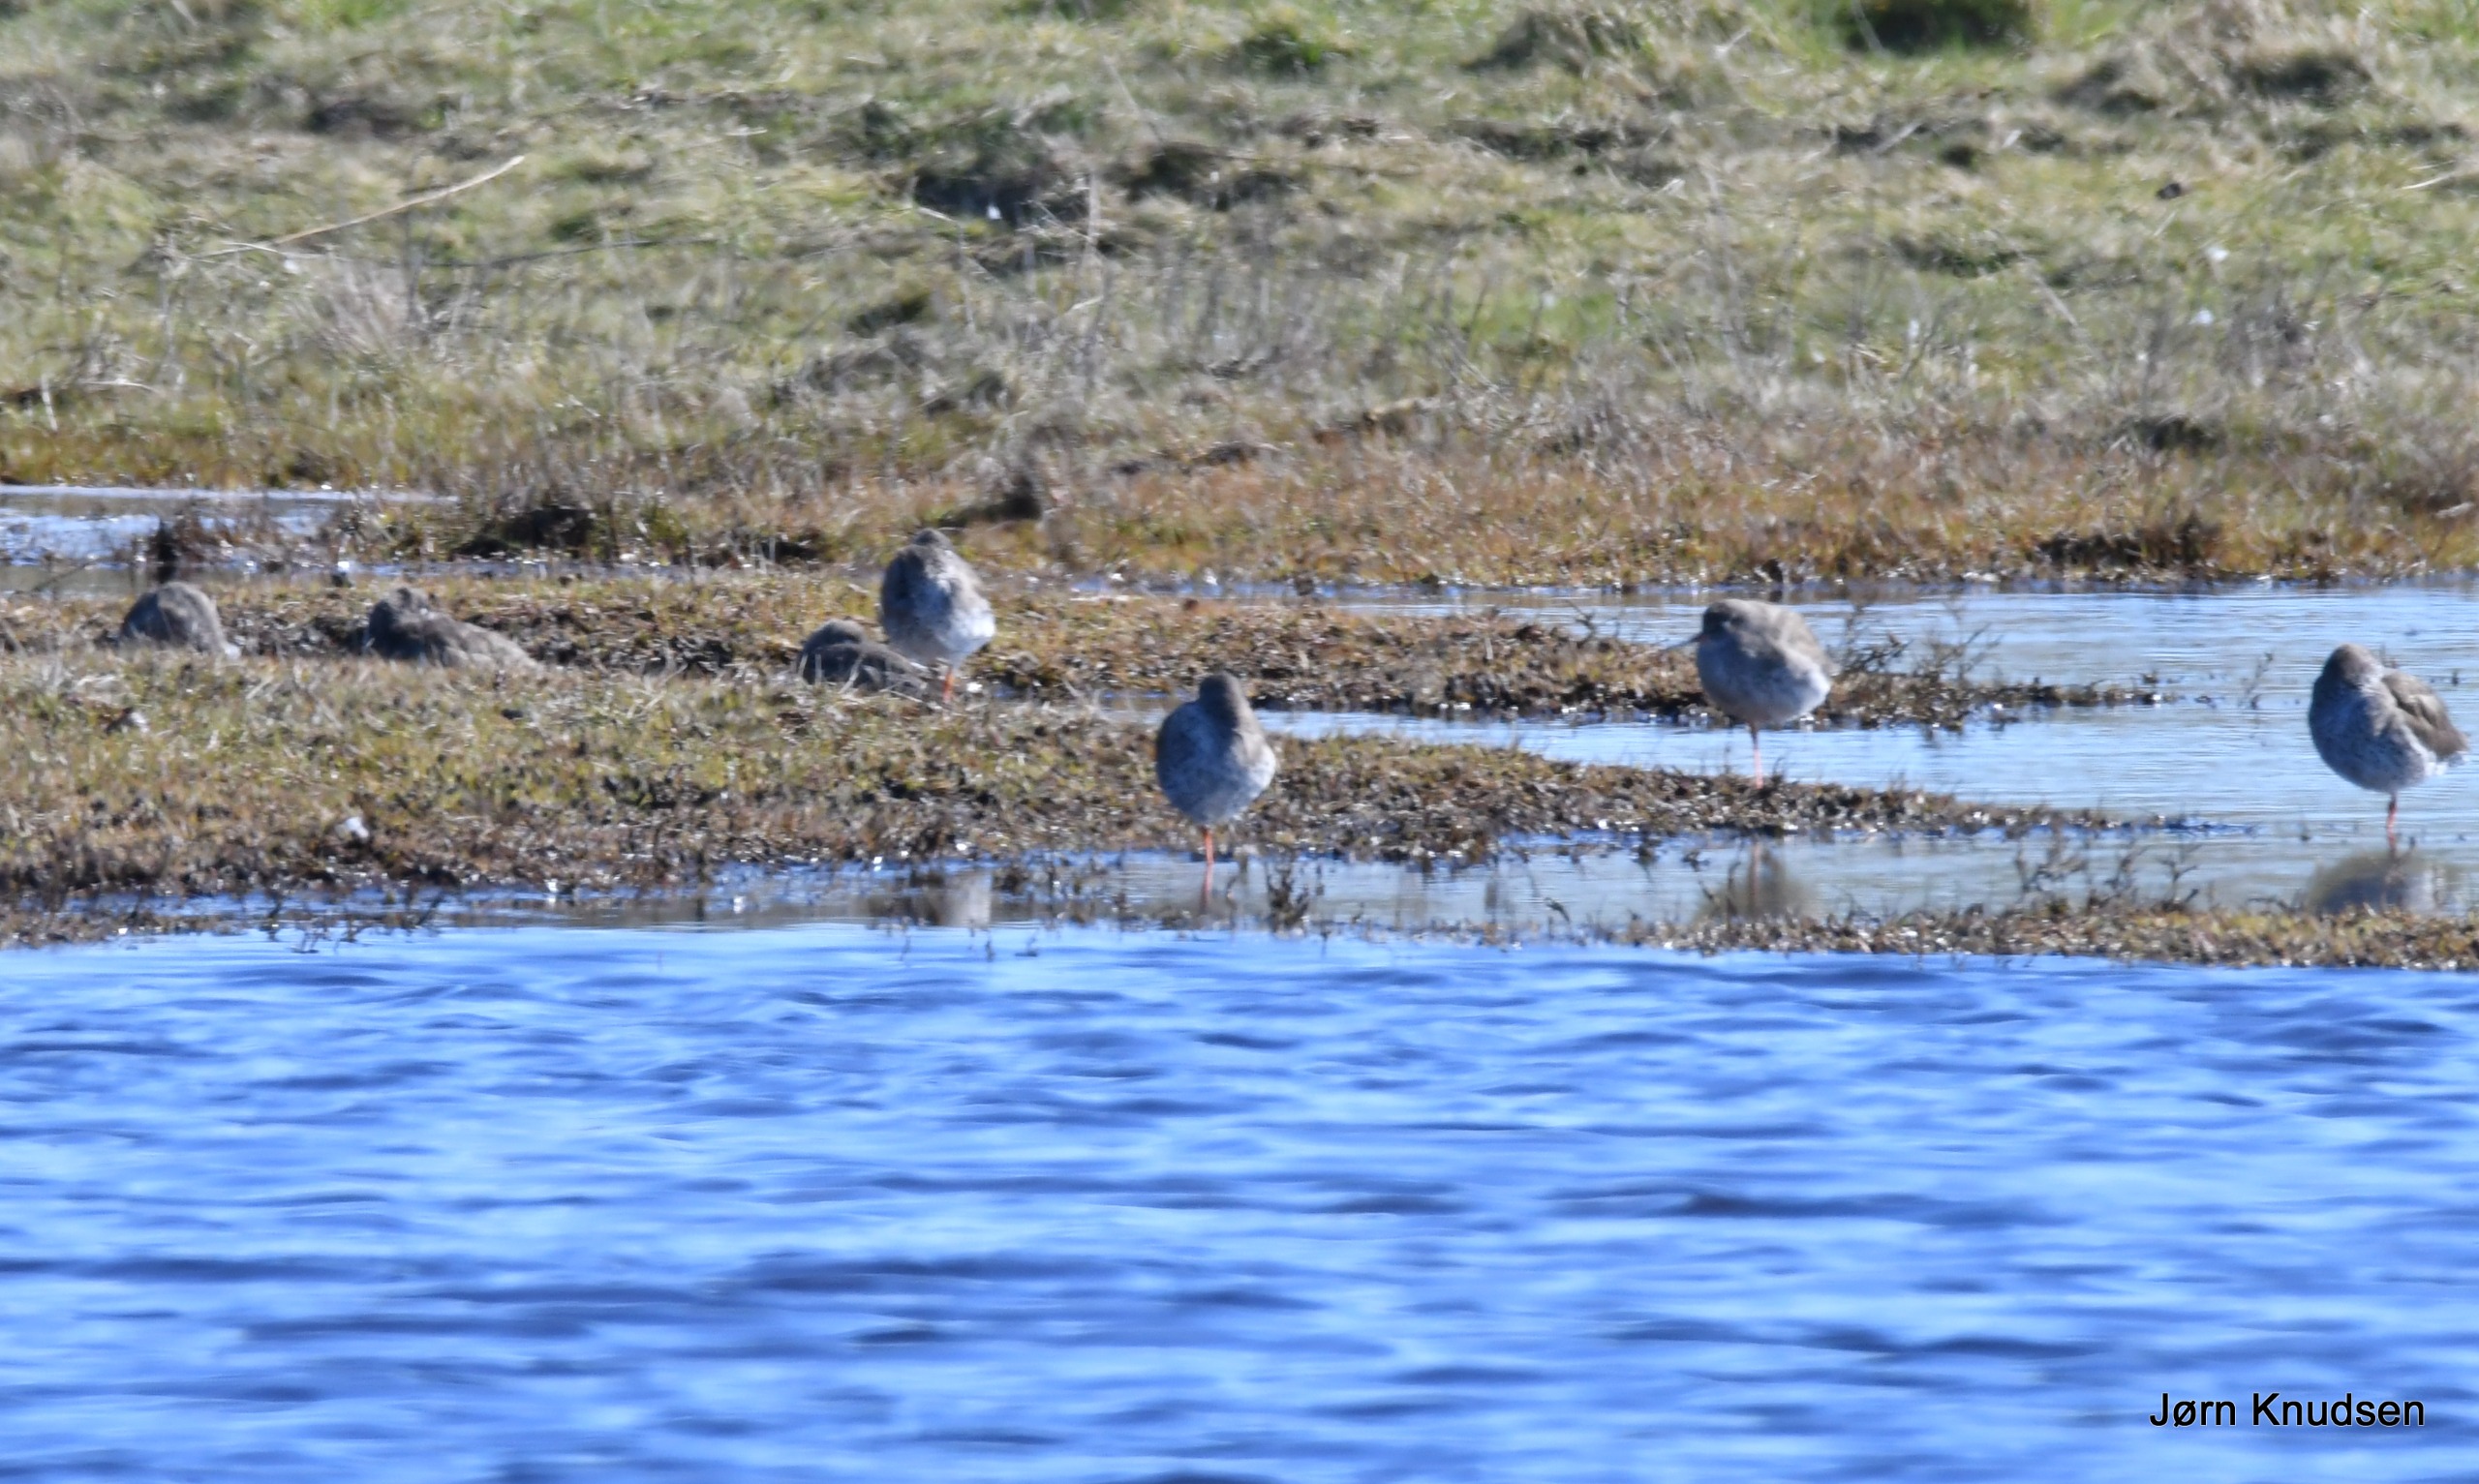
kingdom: Animalia
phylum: Chordata
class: Aves
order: Charadriiformes
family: Scolopacidae
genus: Tringa
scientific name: Tringa totanus
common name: Rødben
